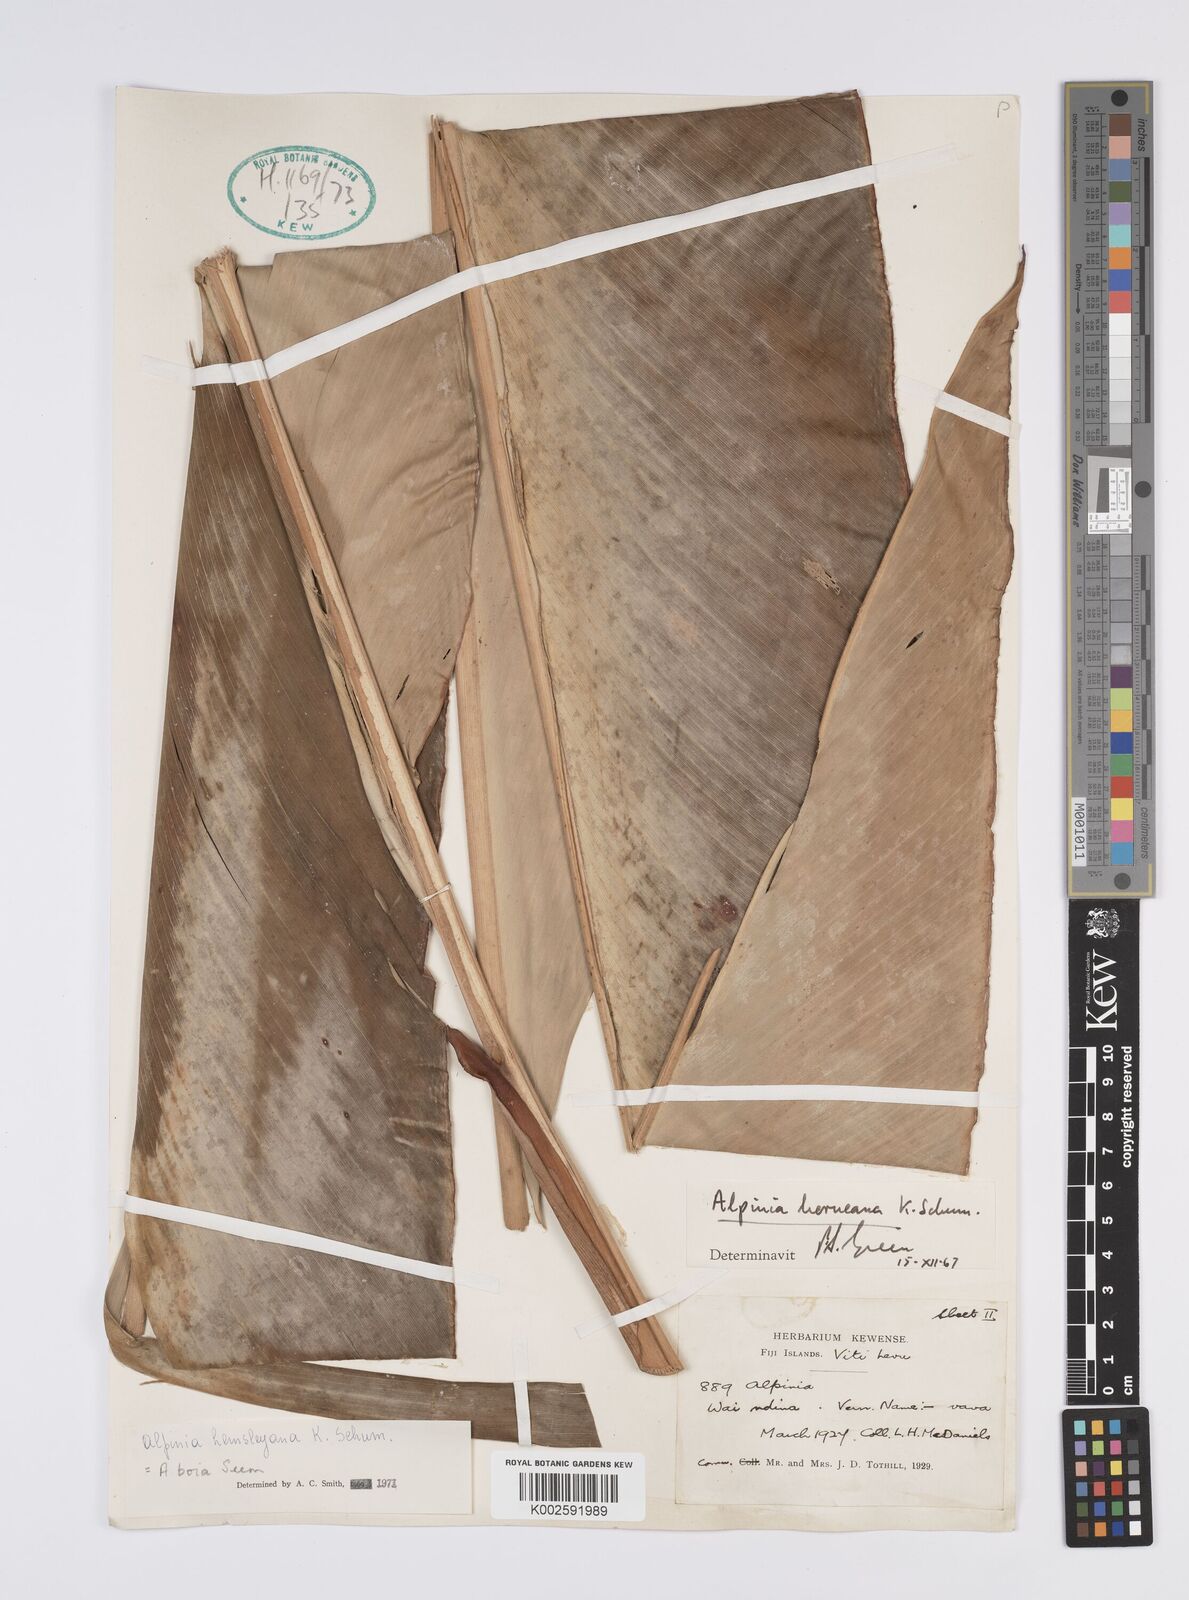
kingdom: Plantae
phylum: Tracheophyta
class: Liliopsida
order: Zingiberales
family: Zingiberaceae
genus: Alpinia
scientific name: Alpinia boia
